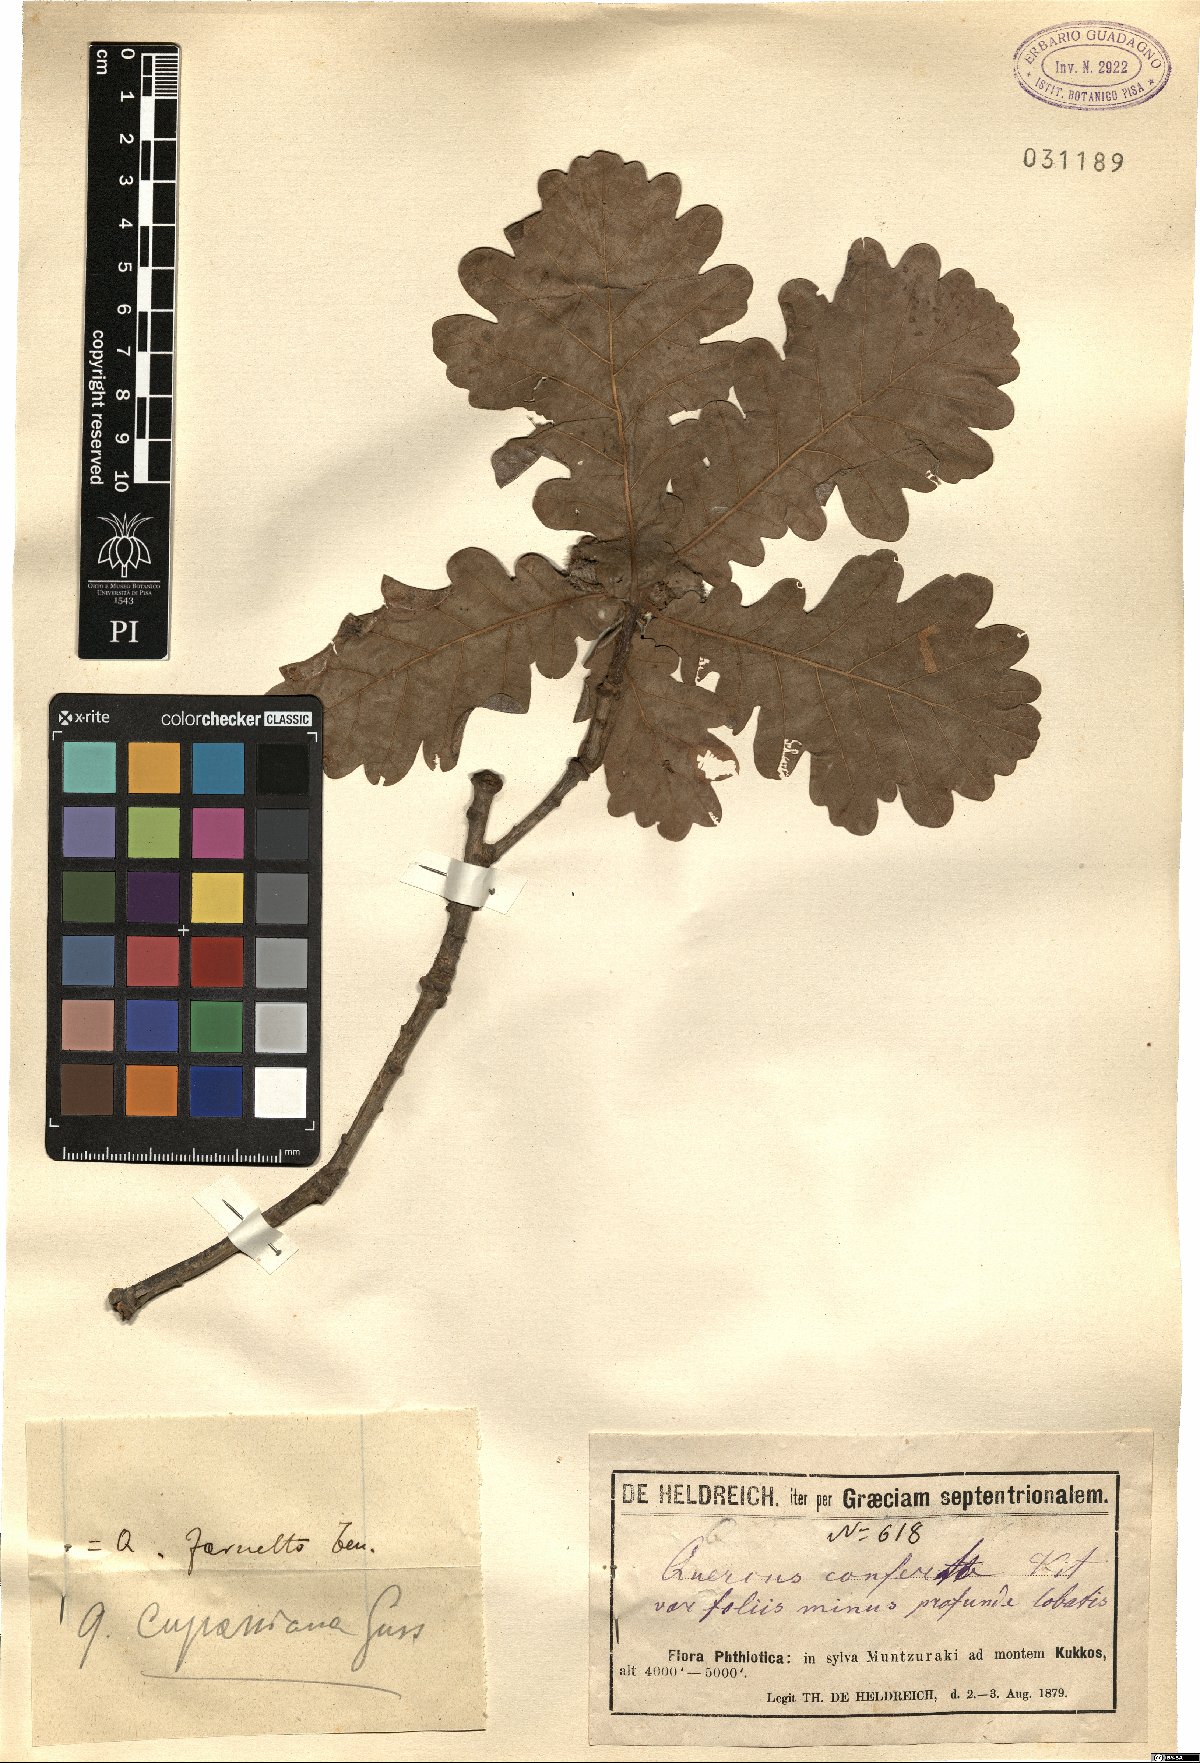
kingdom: Plantae
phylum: Tracheophyta
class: Magnoliopsida
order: Fagales
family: Fagaceae
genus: Quercus
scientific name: Quercus pubescens
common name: Downy oak
